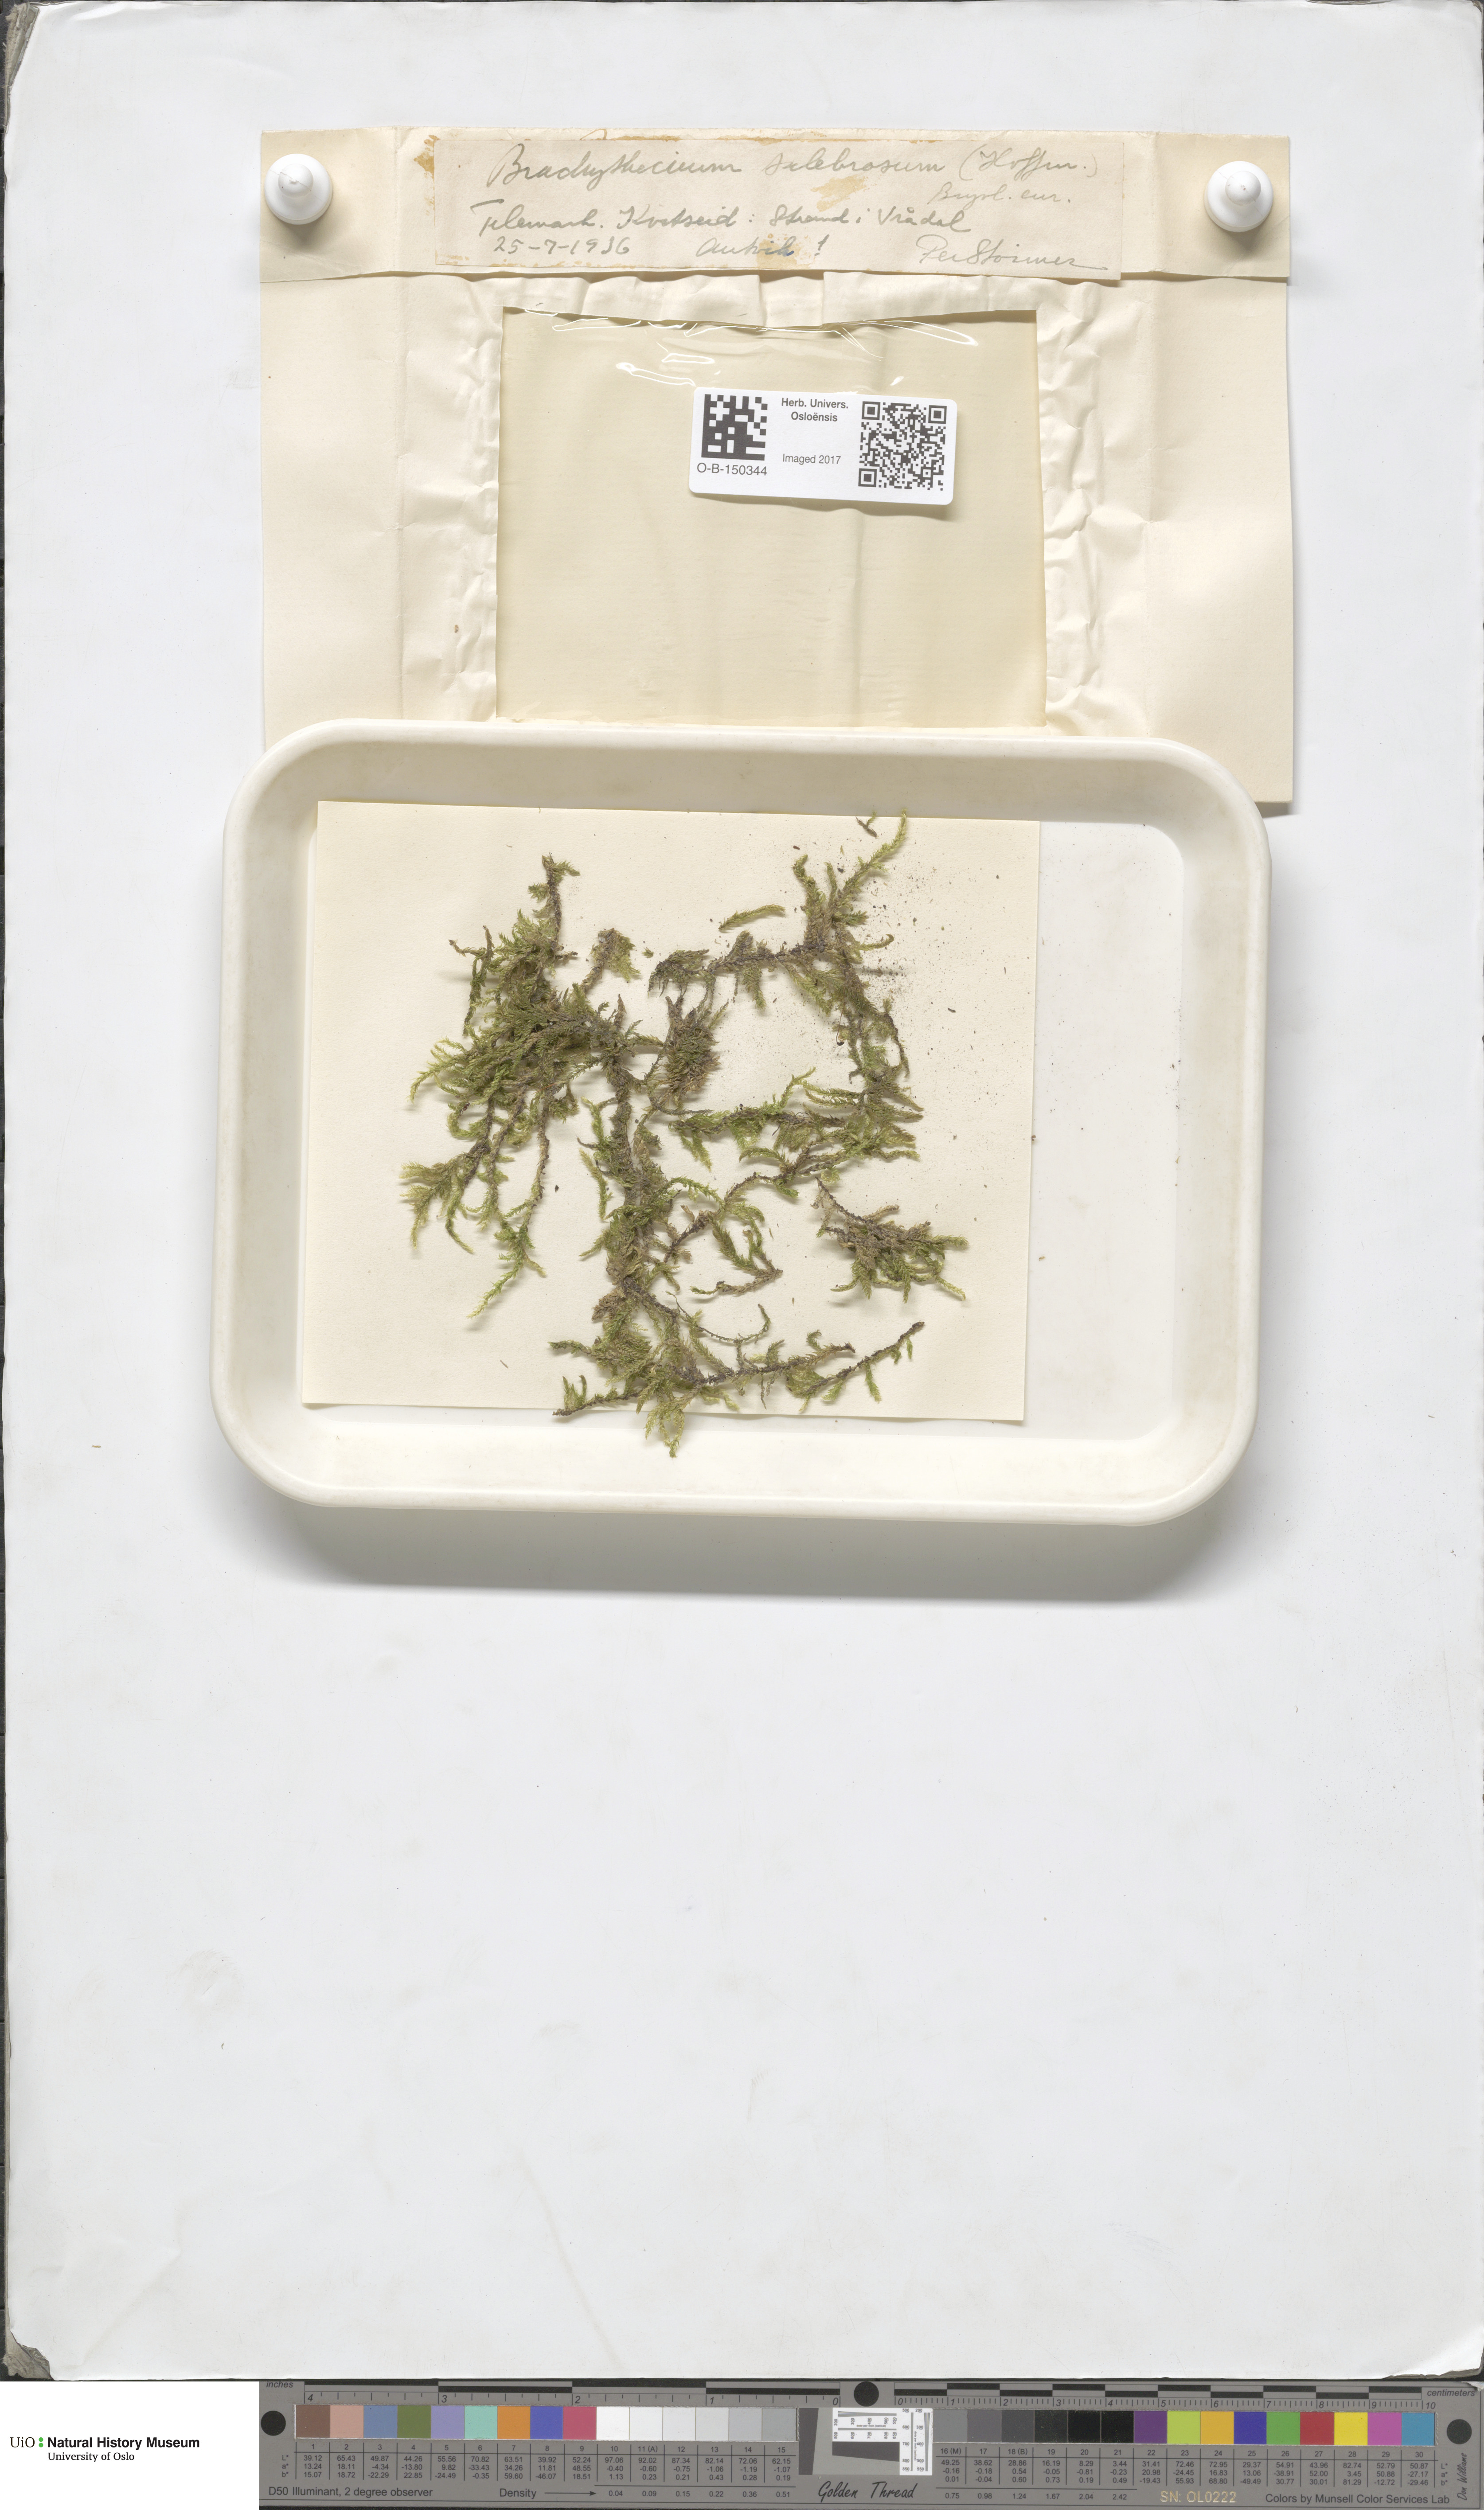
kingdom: Plantae
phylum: Bryophyta
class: Bryopsida
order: Hypnales
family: Brachytheciaceae
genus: Brachythecium
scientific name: Brachythecium salebrosum
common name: Smooth-stalk feather-moss
